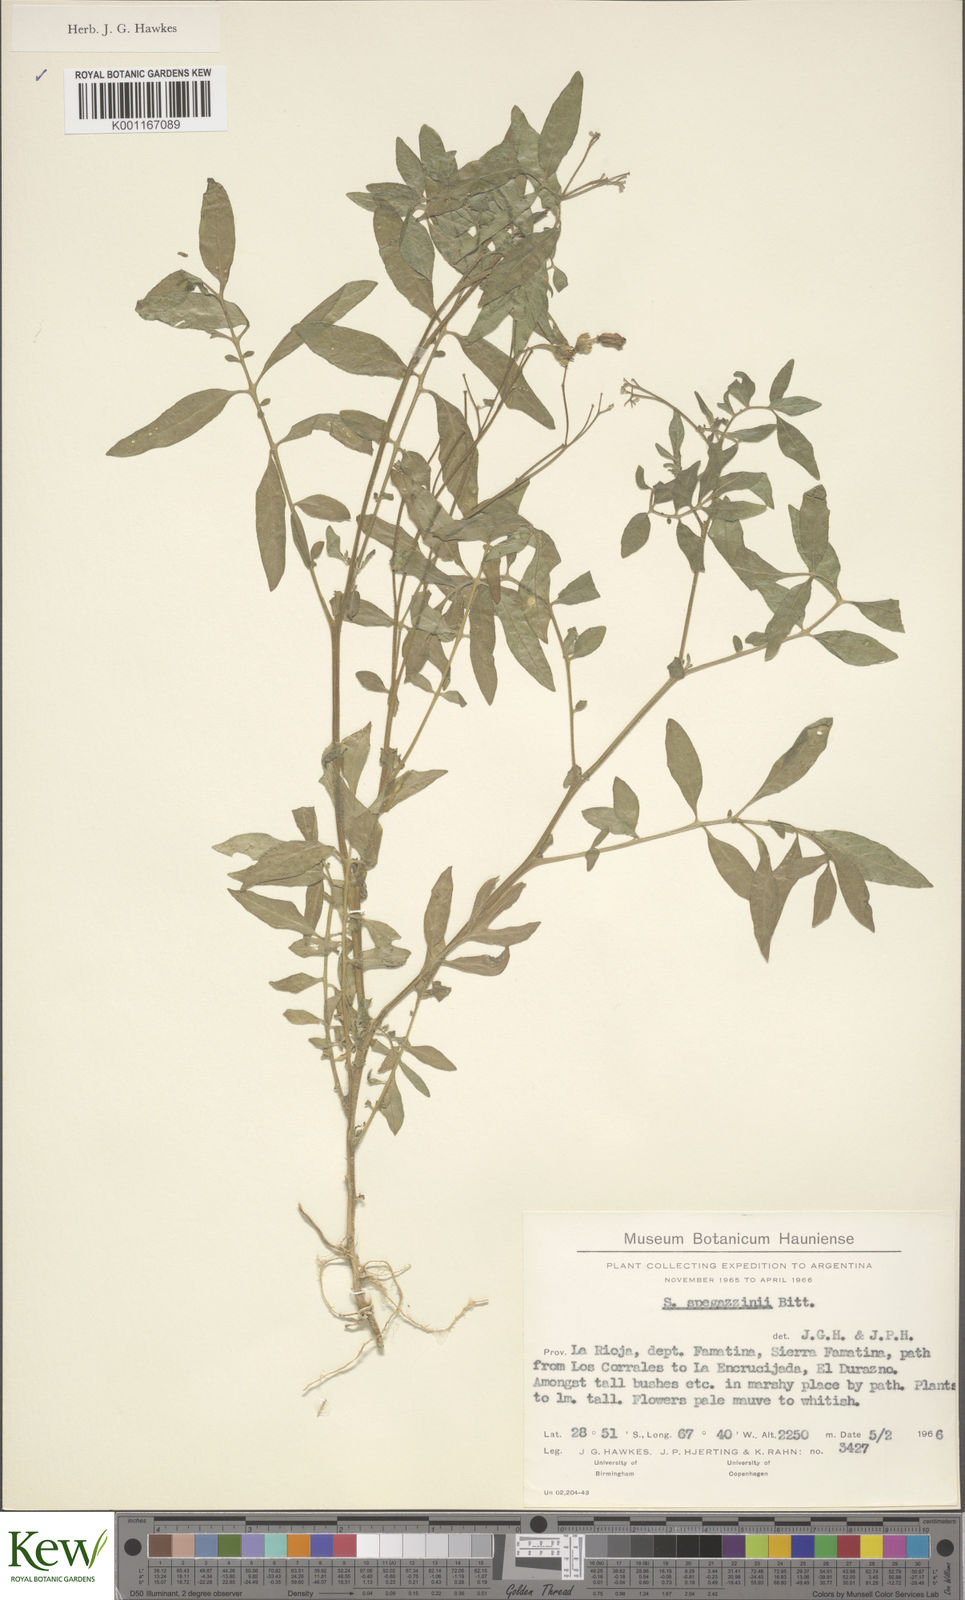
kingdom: Plantae
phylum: Tracheophyta
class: Magnoliopsida
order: Solanales
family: Solanaceae
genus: Solanum
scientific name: Solanum brevicaule
